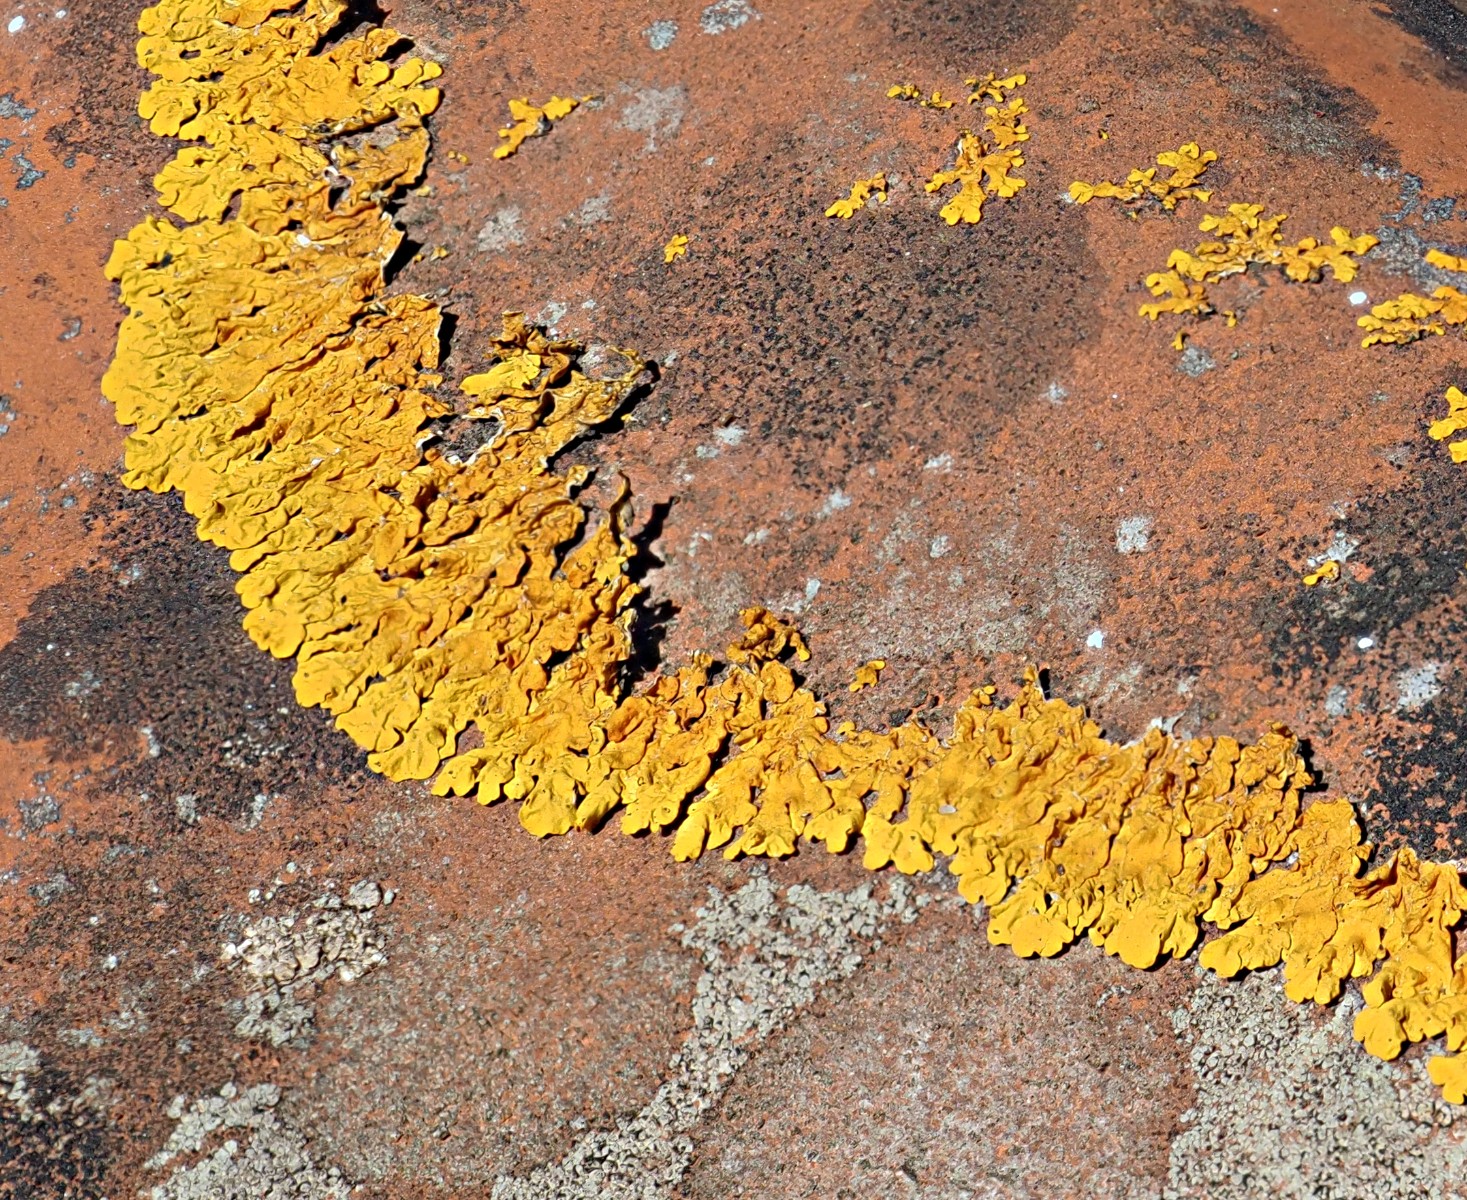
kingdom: Fungi
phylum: Ascomycota
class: Lecanoromycetes
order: Teloschistales
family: Teloschistaceae
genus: Xanthoria
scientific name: Xanthoria calcicola
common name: vortet væggelav
